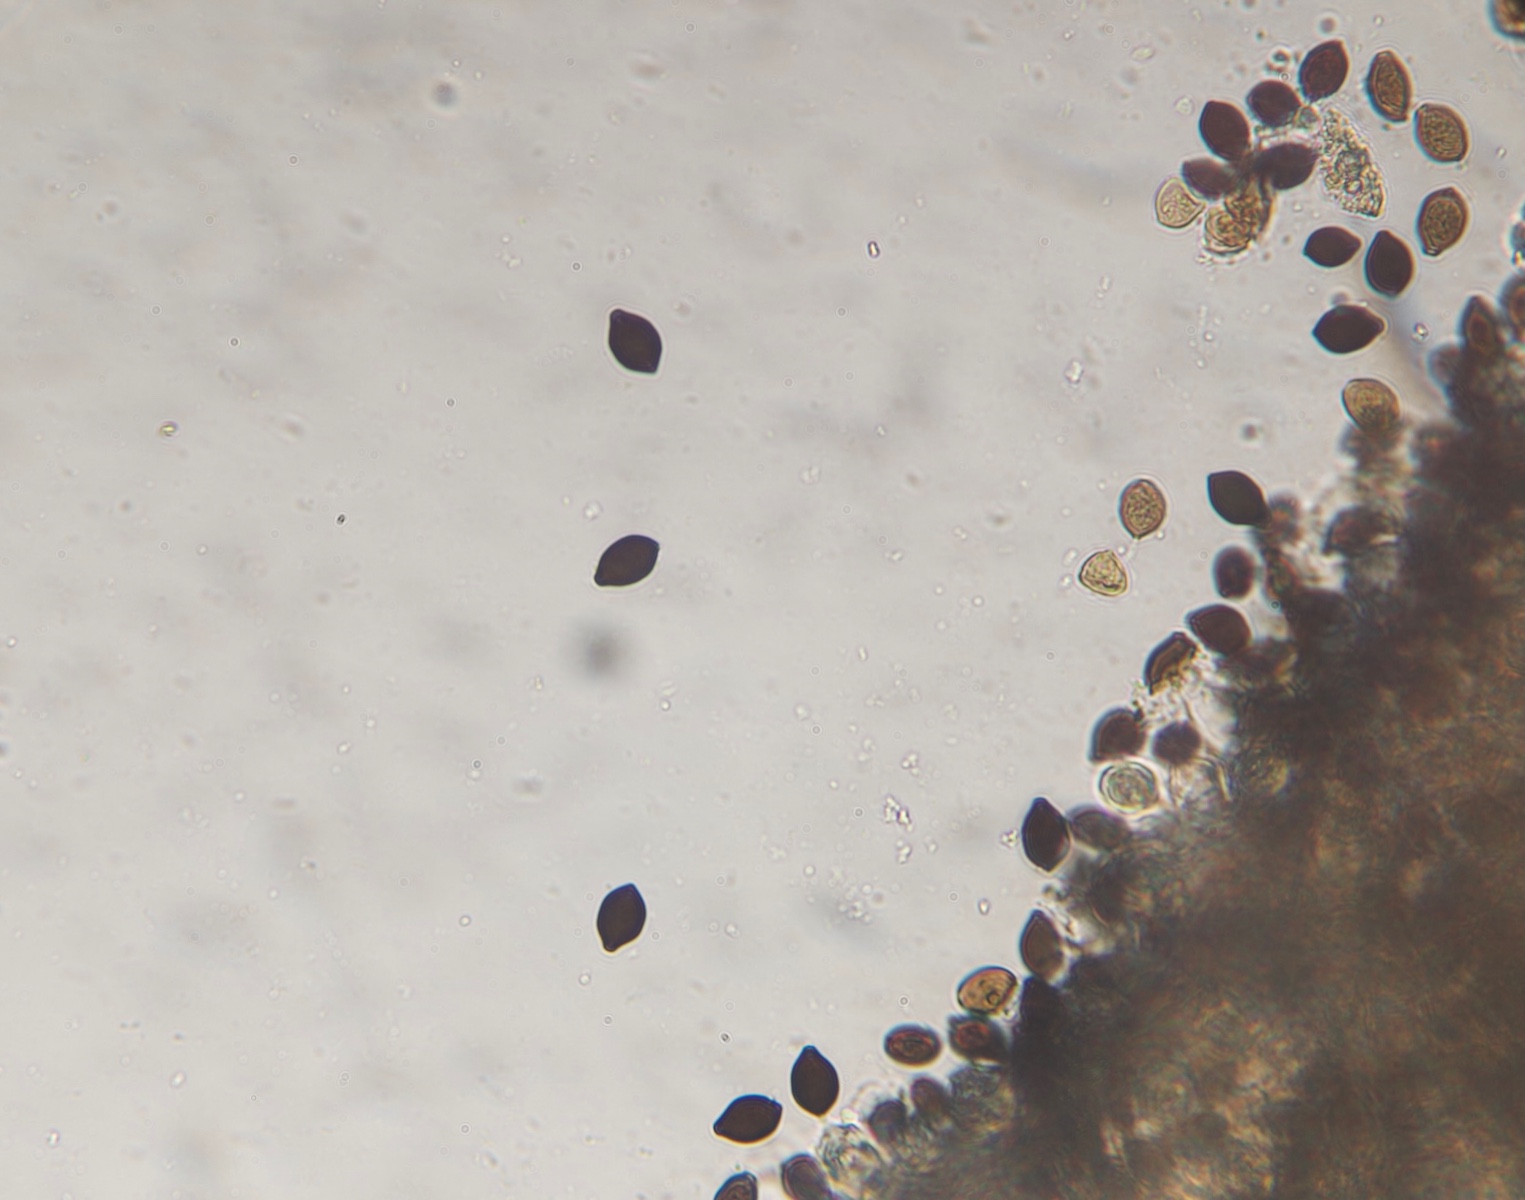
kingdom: Fungi
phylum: Basidiomycota
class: Agaricomycetes
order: Agaricales
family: Bolbitiaceae
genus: Panaeolus
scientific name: Panaeolus papilionaceus
